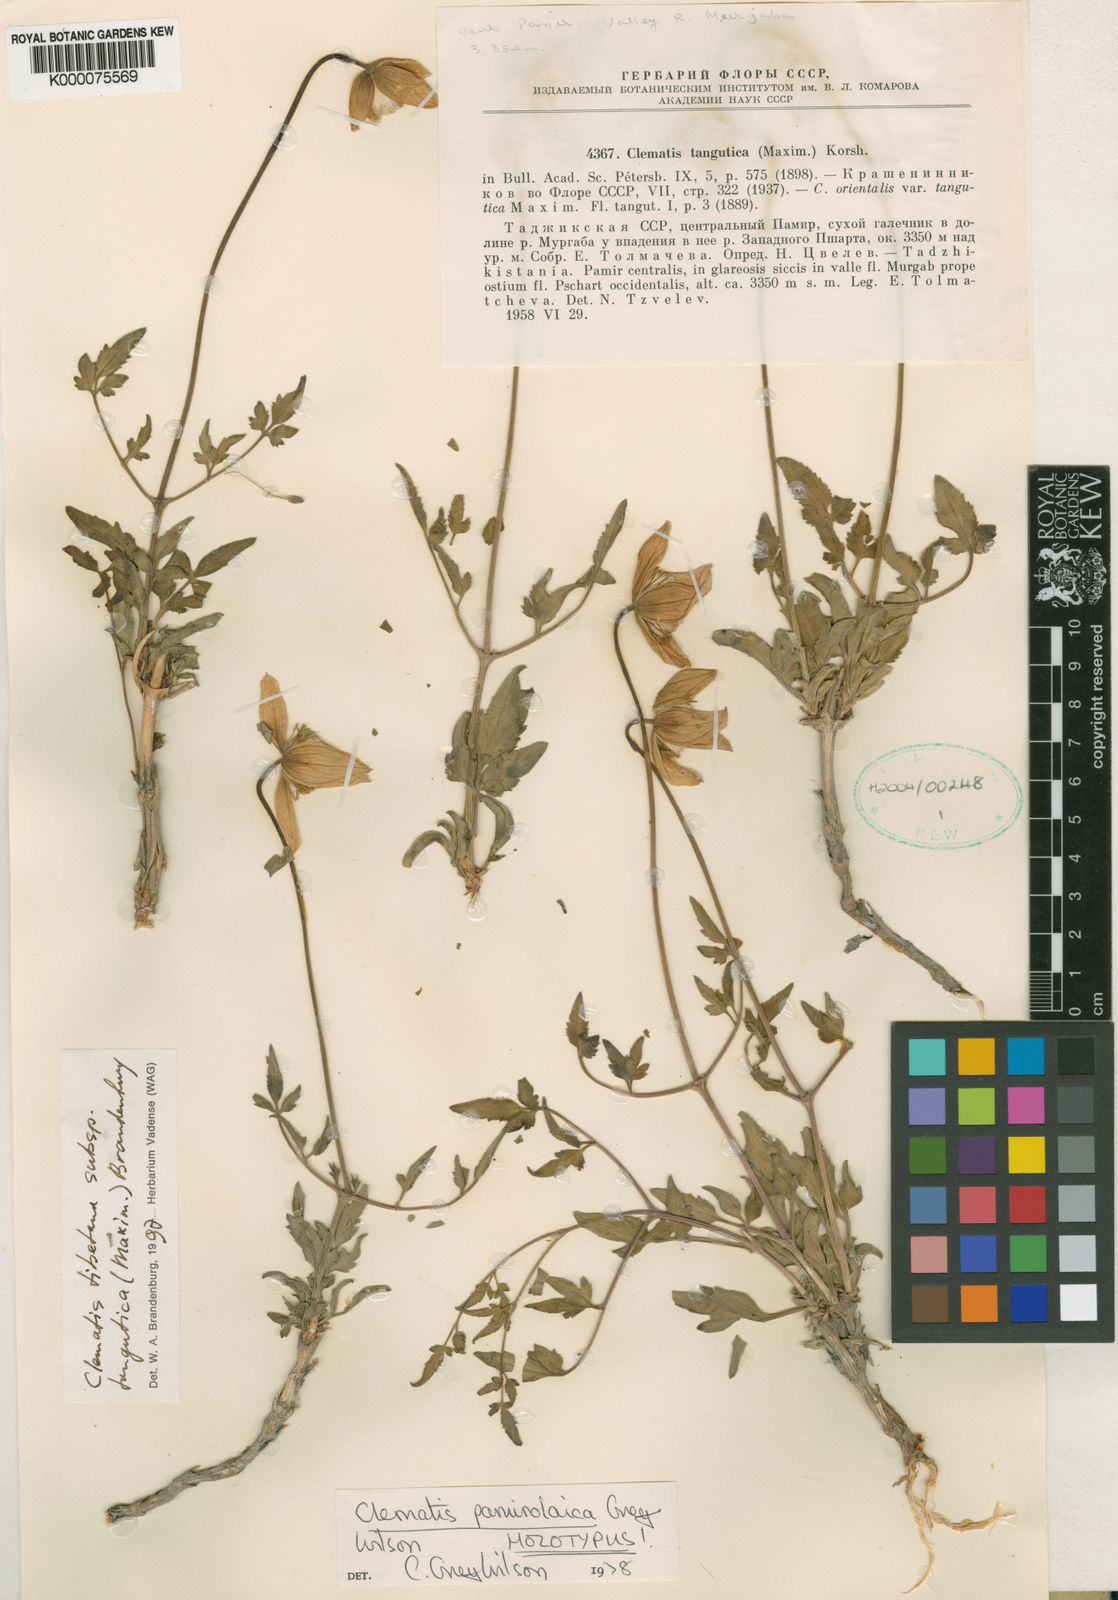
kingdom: Plantae
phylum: Tracheophyta
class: Magnoliopsida
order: Ranunculales
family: Ranunculaceae
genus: Clematis
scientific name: Clematis tibetana
